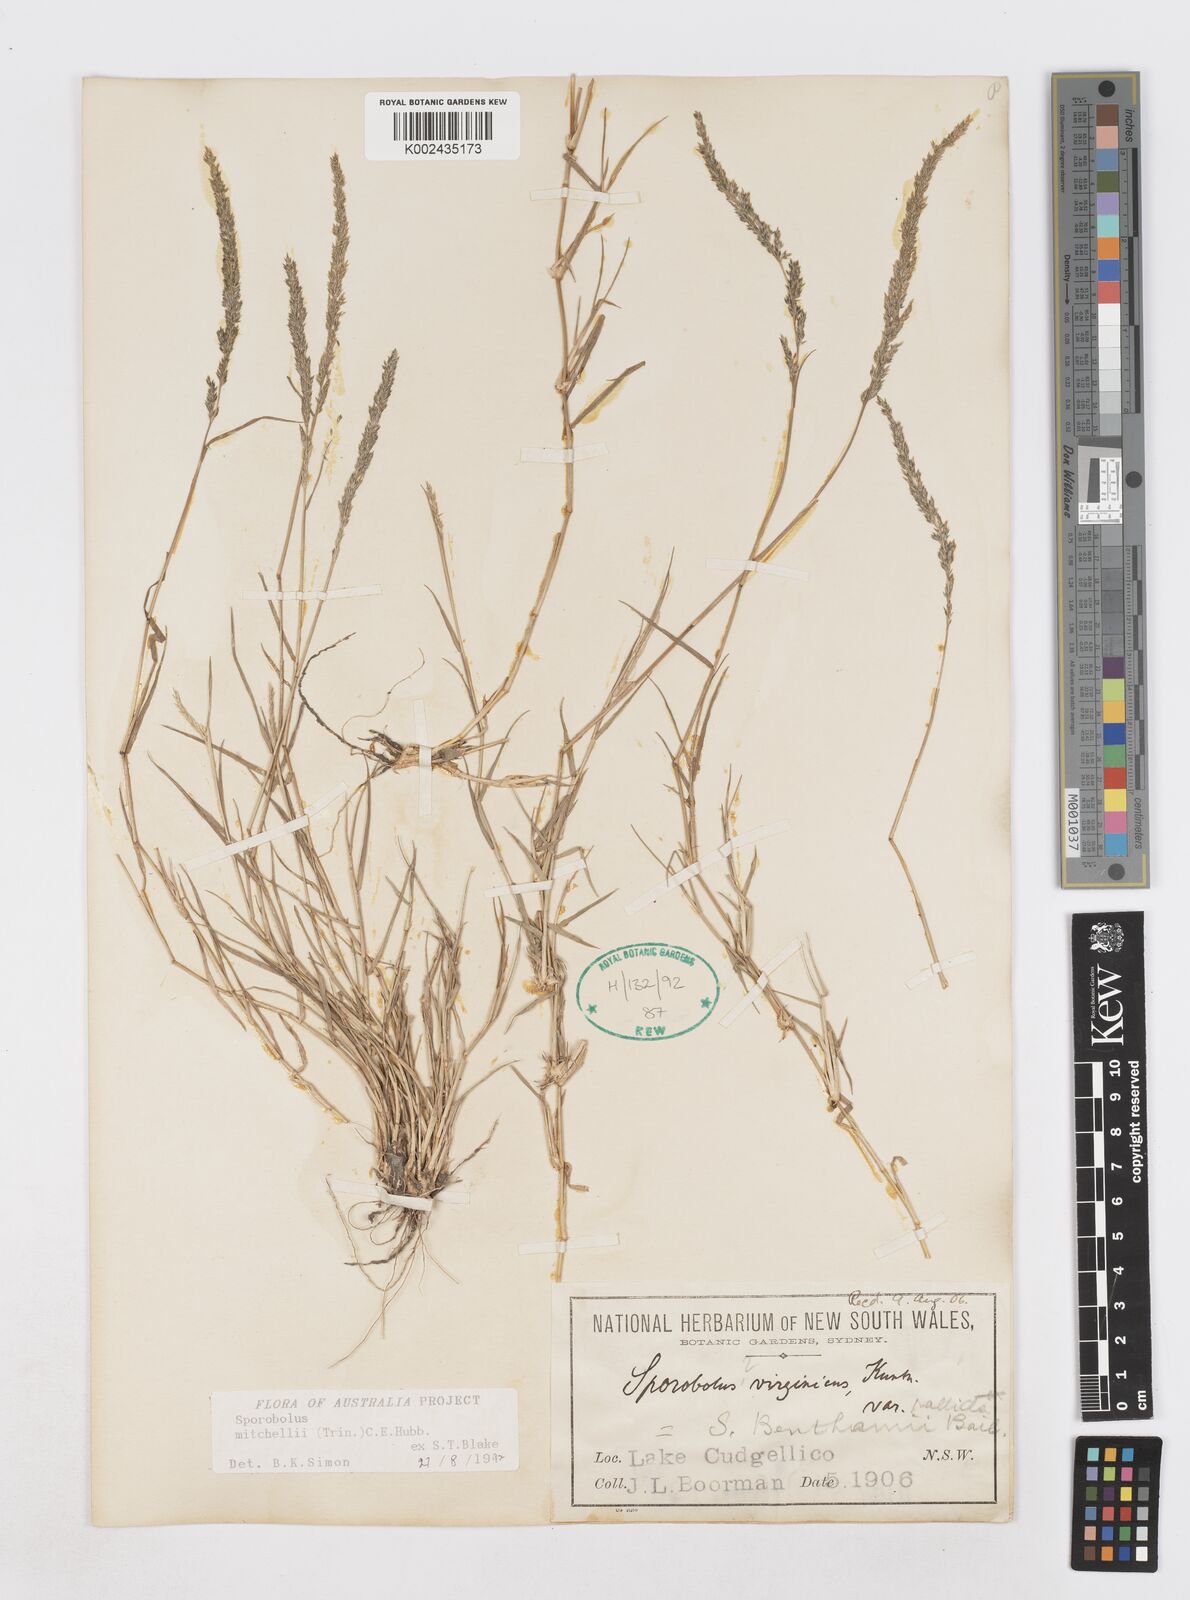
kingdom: Plantae
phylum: Tracheophyta
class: Liliopsida
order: Poales
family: Poaceae
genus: Sporobolus
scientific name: Sporobolus mitchellii
